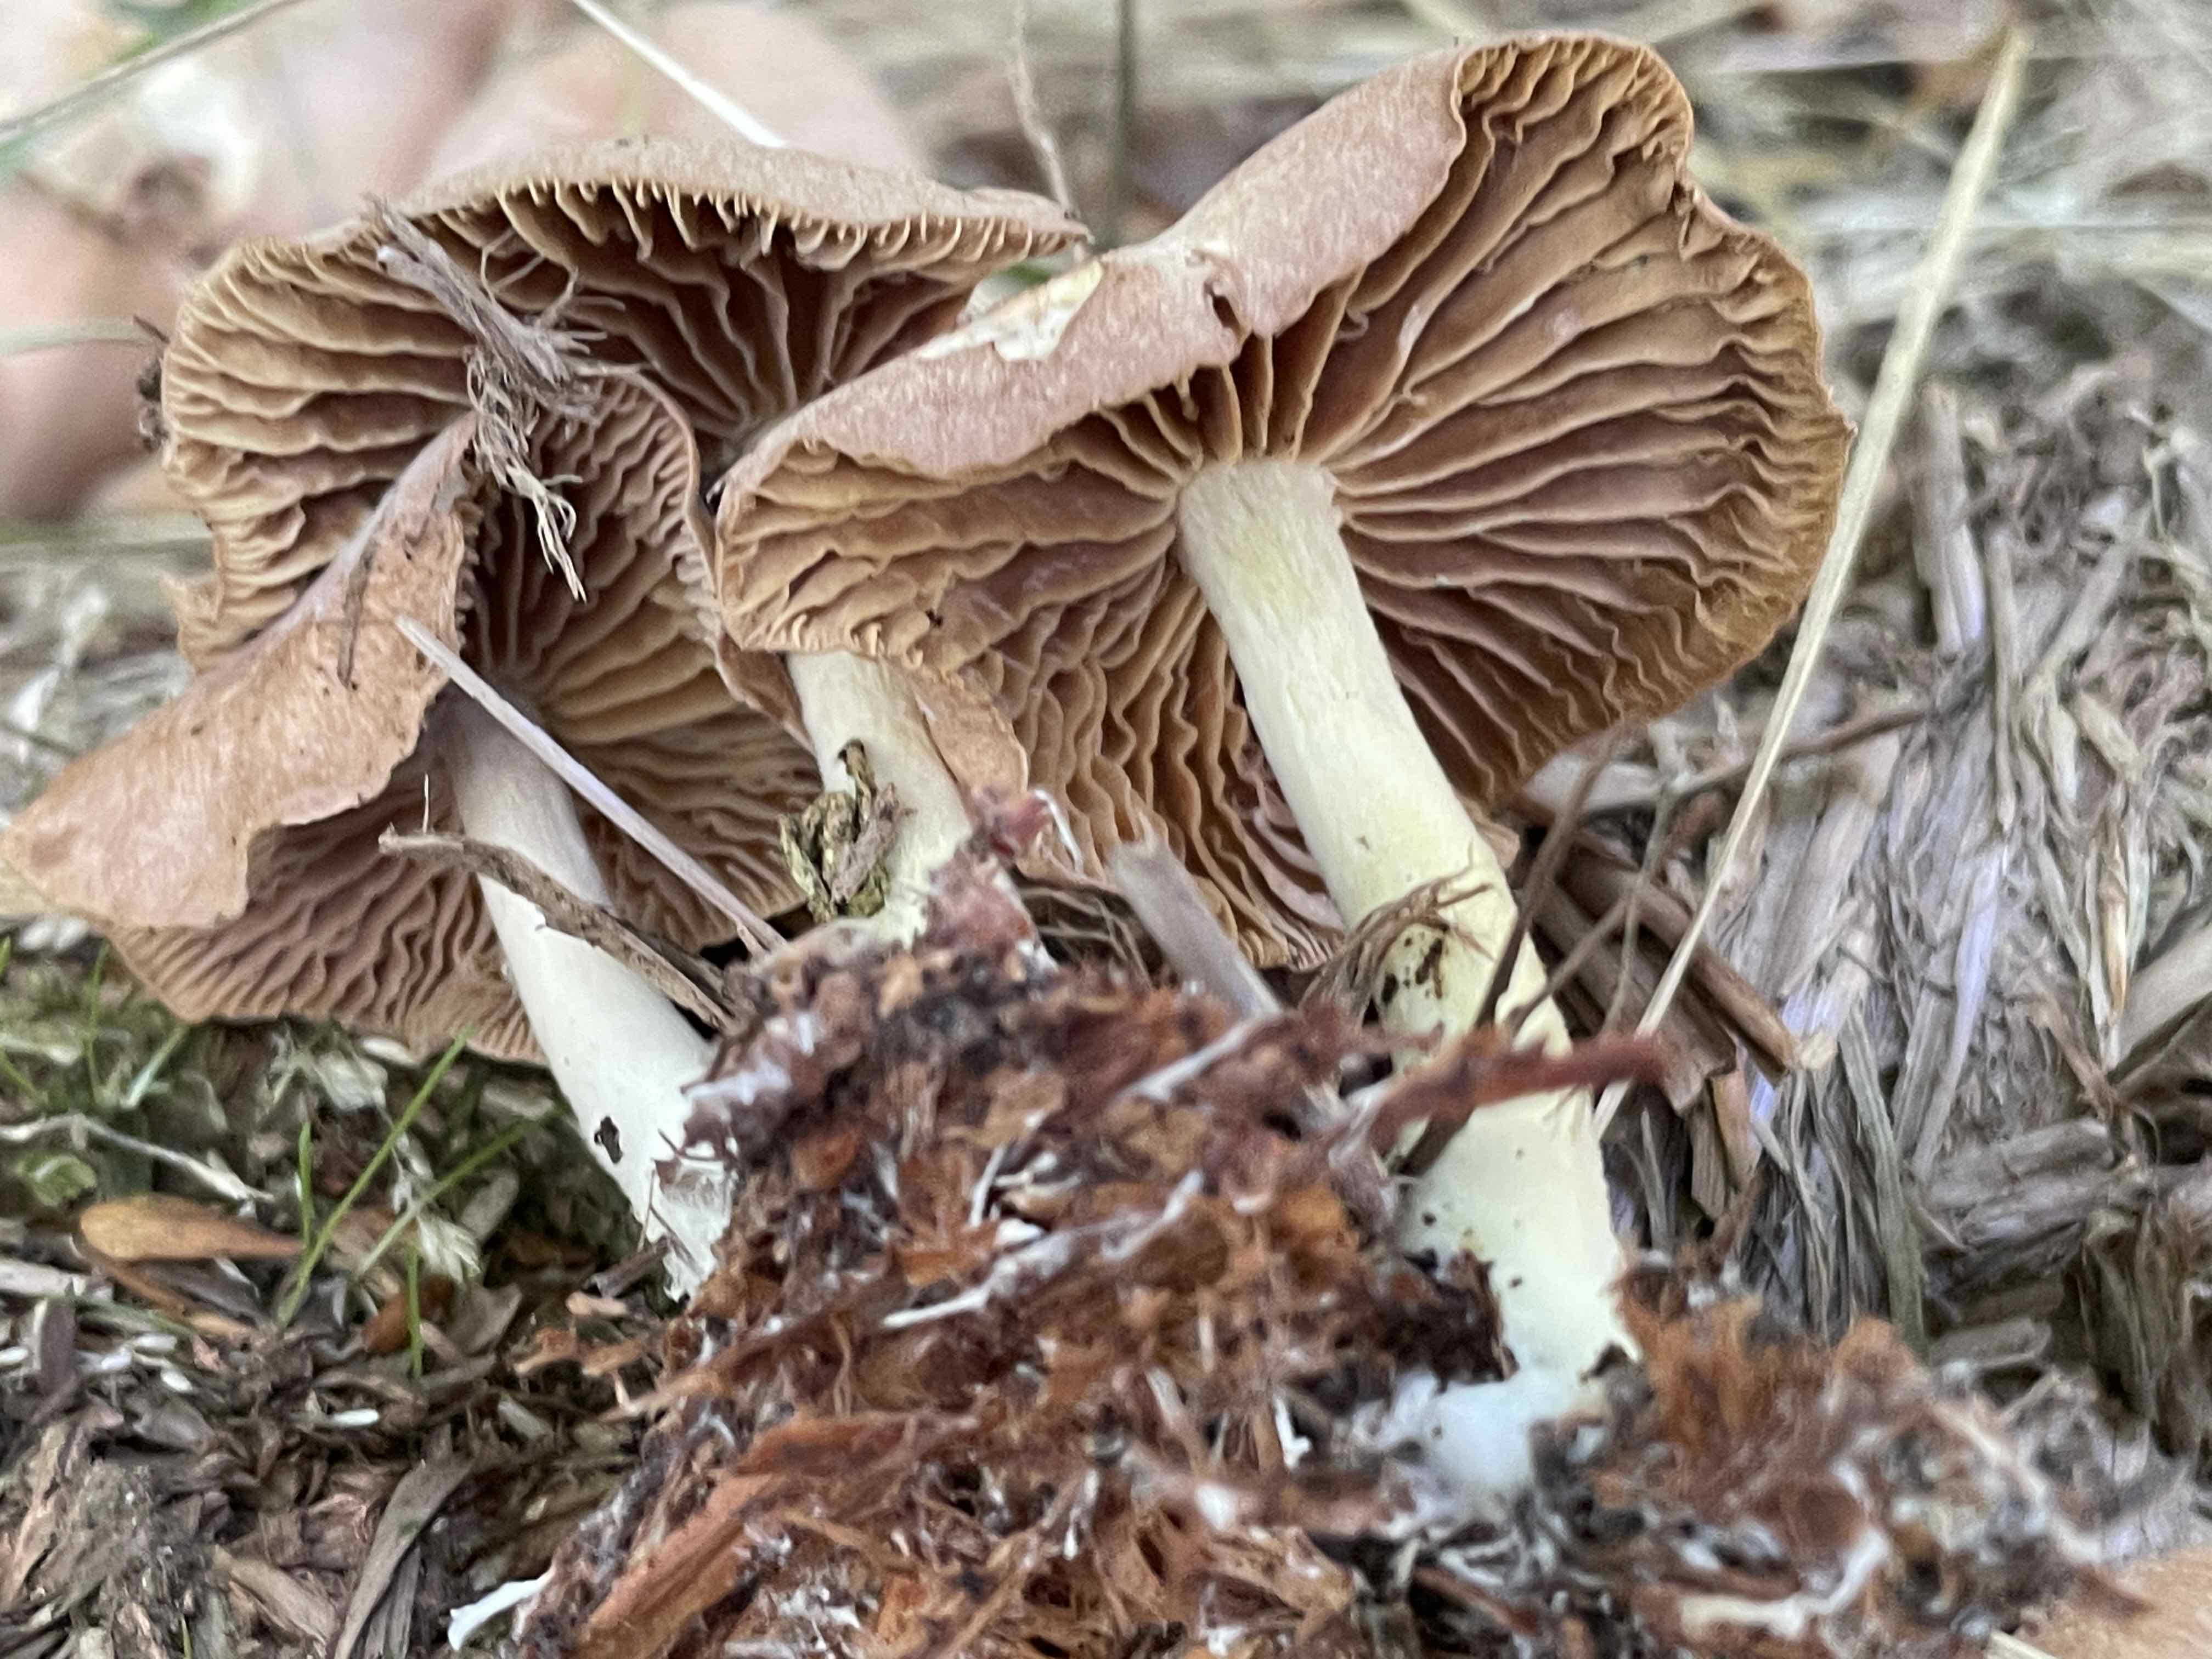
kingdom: Fungi
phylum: Basidiomycota
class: Agaricomycetes
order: Agaricales
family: Omphalotaceae
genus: Collybiopsis
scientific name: Collybiopsis peronata
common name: bestøvlet fladhat
